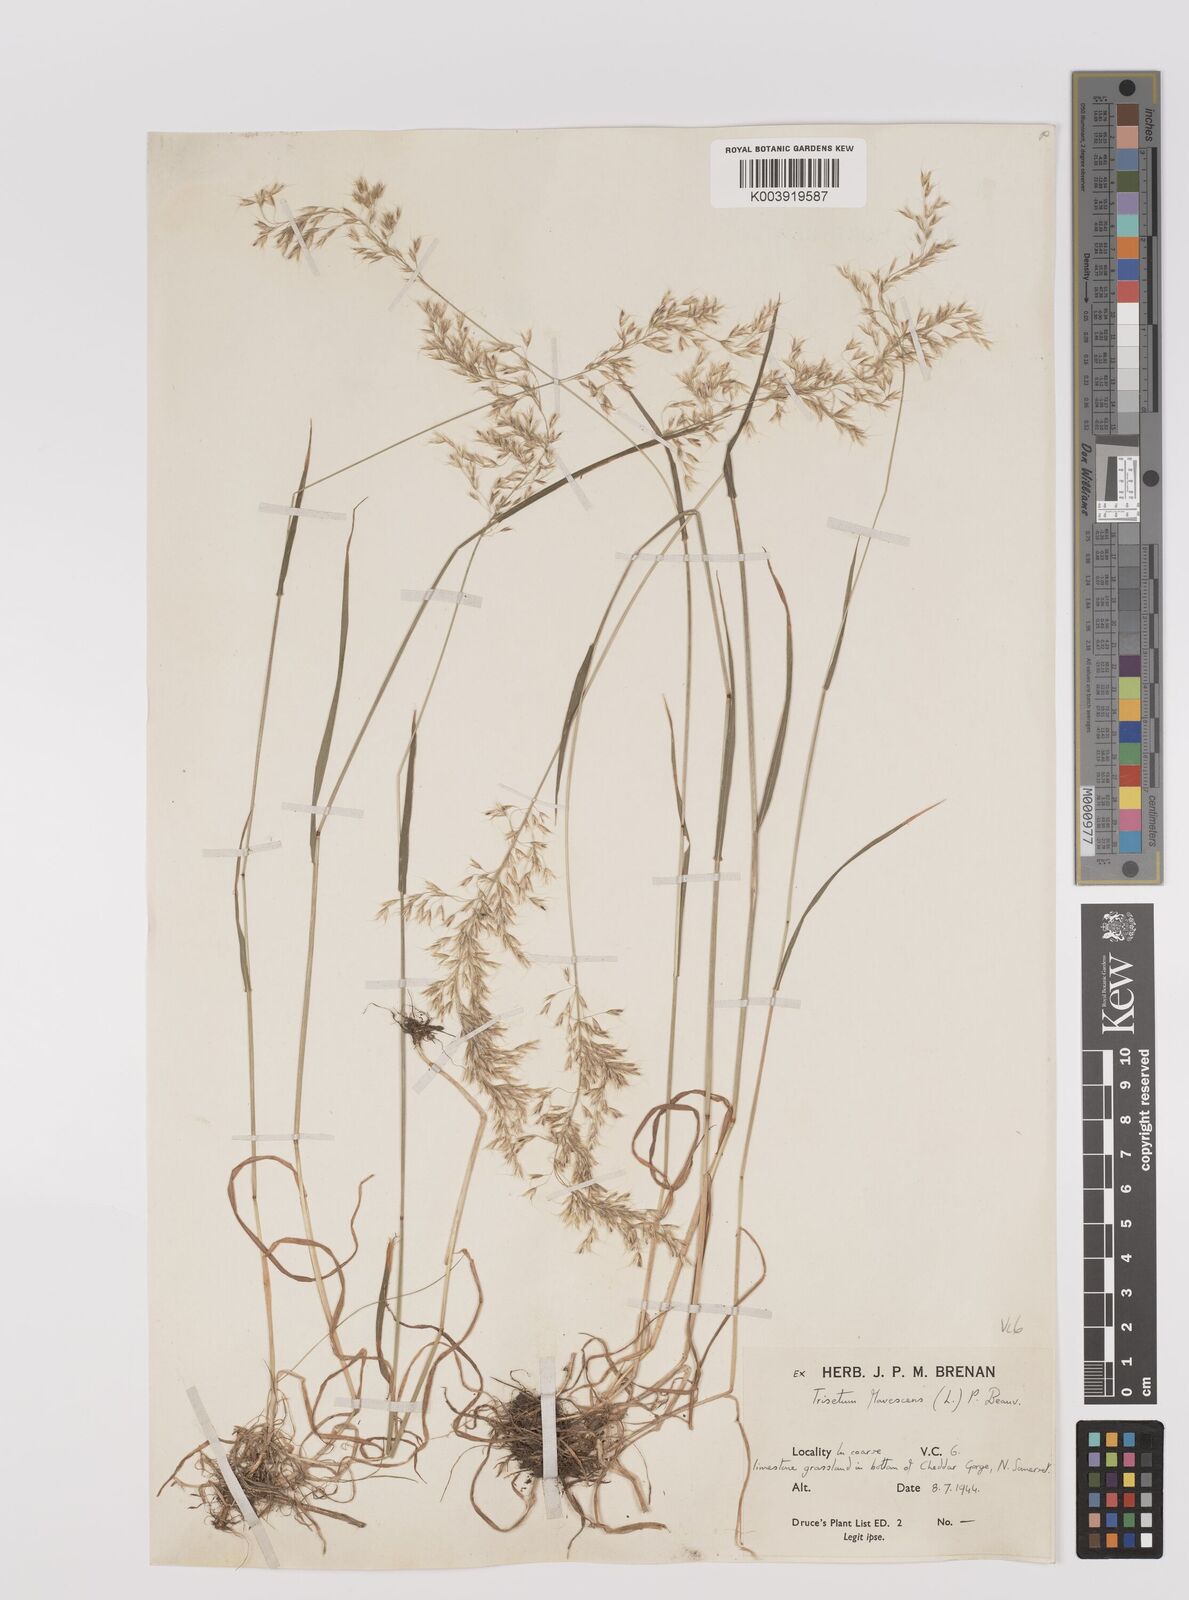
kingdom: Plantae
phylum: Tracheophyta
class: Liliopsida
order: Poales
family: Poaceae
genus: Trisetum
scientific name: Trisetum flavescens
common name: Yellow oat-grass
